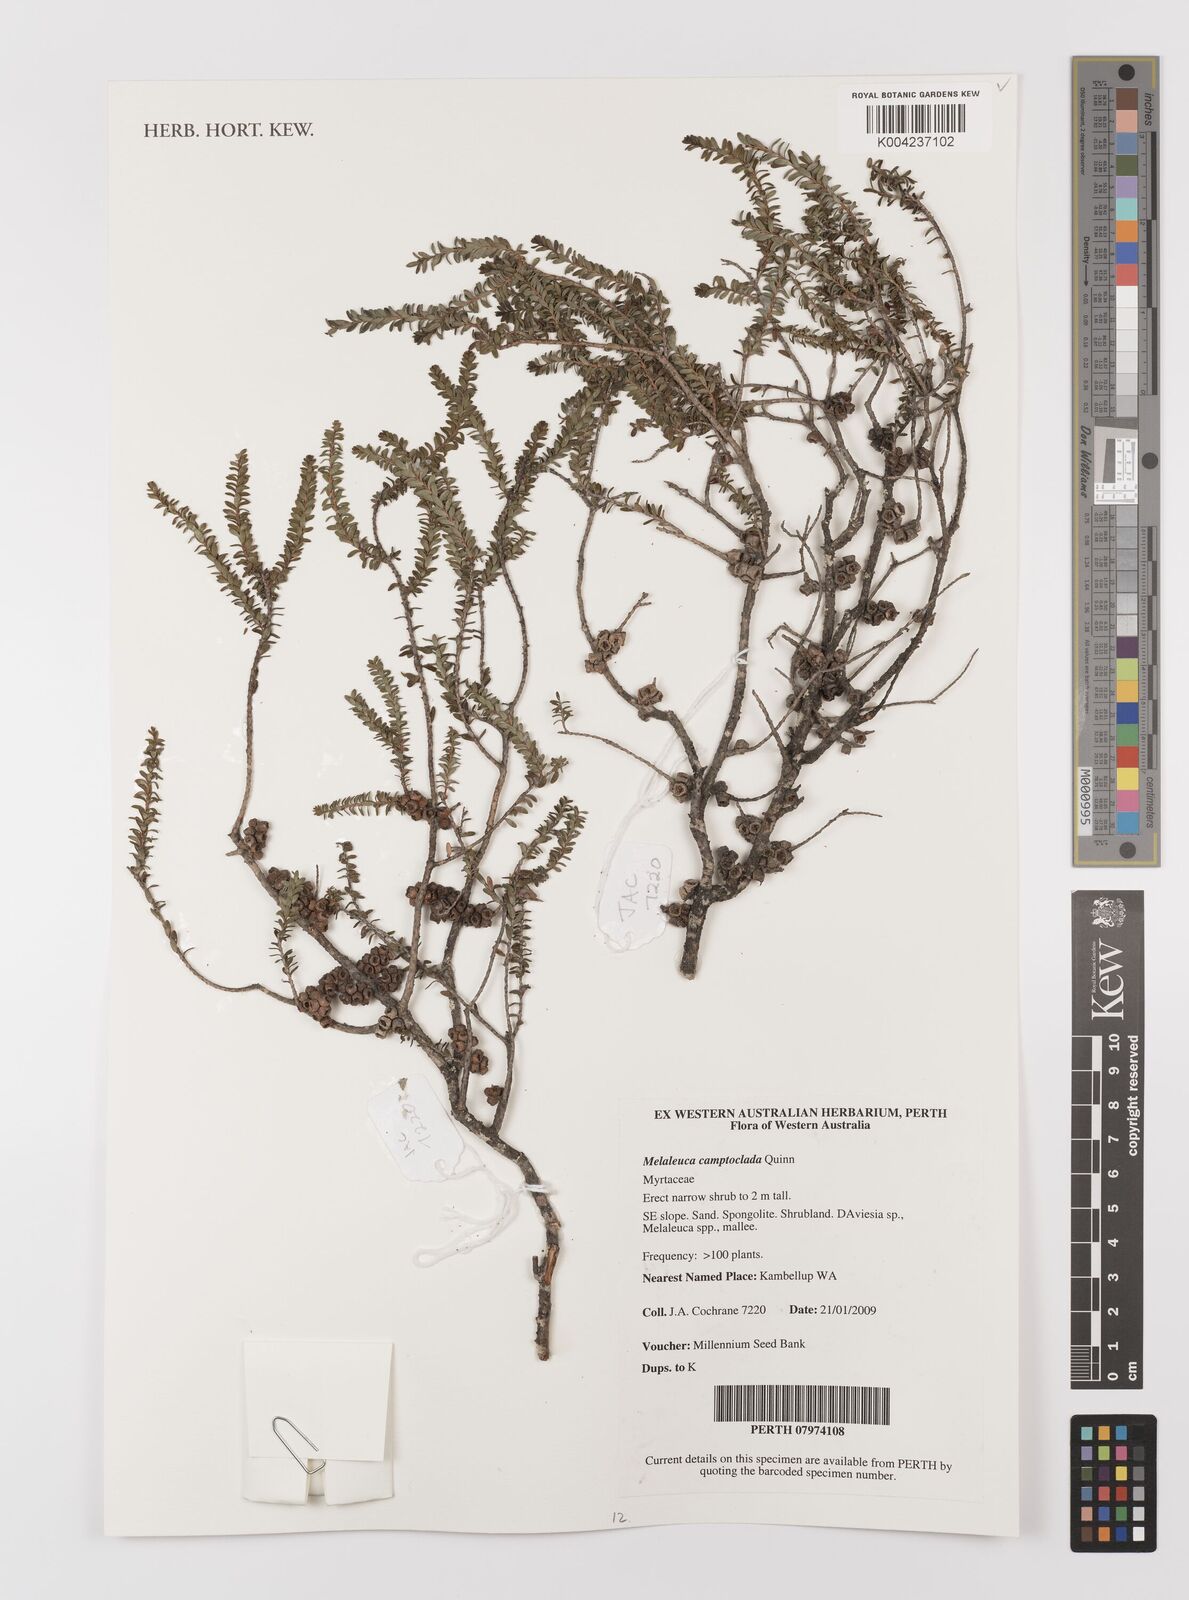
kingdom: Plantae
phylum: Tracheophyta
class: Magnoliopsida
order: Myrtales
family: Myrtaceae
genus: Melaleuca
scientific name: Melaleuca camptoclada
